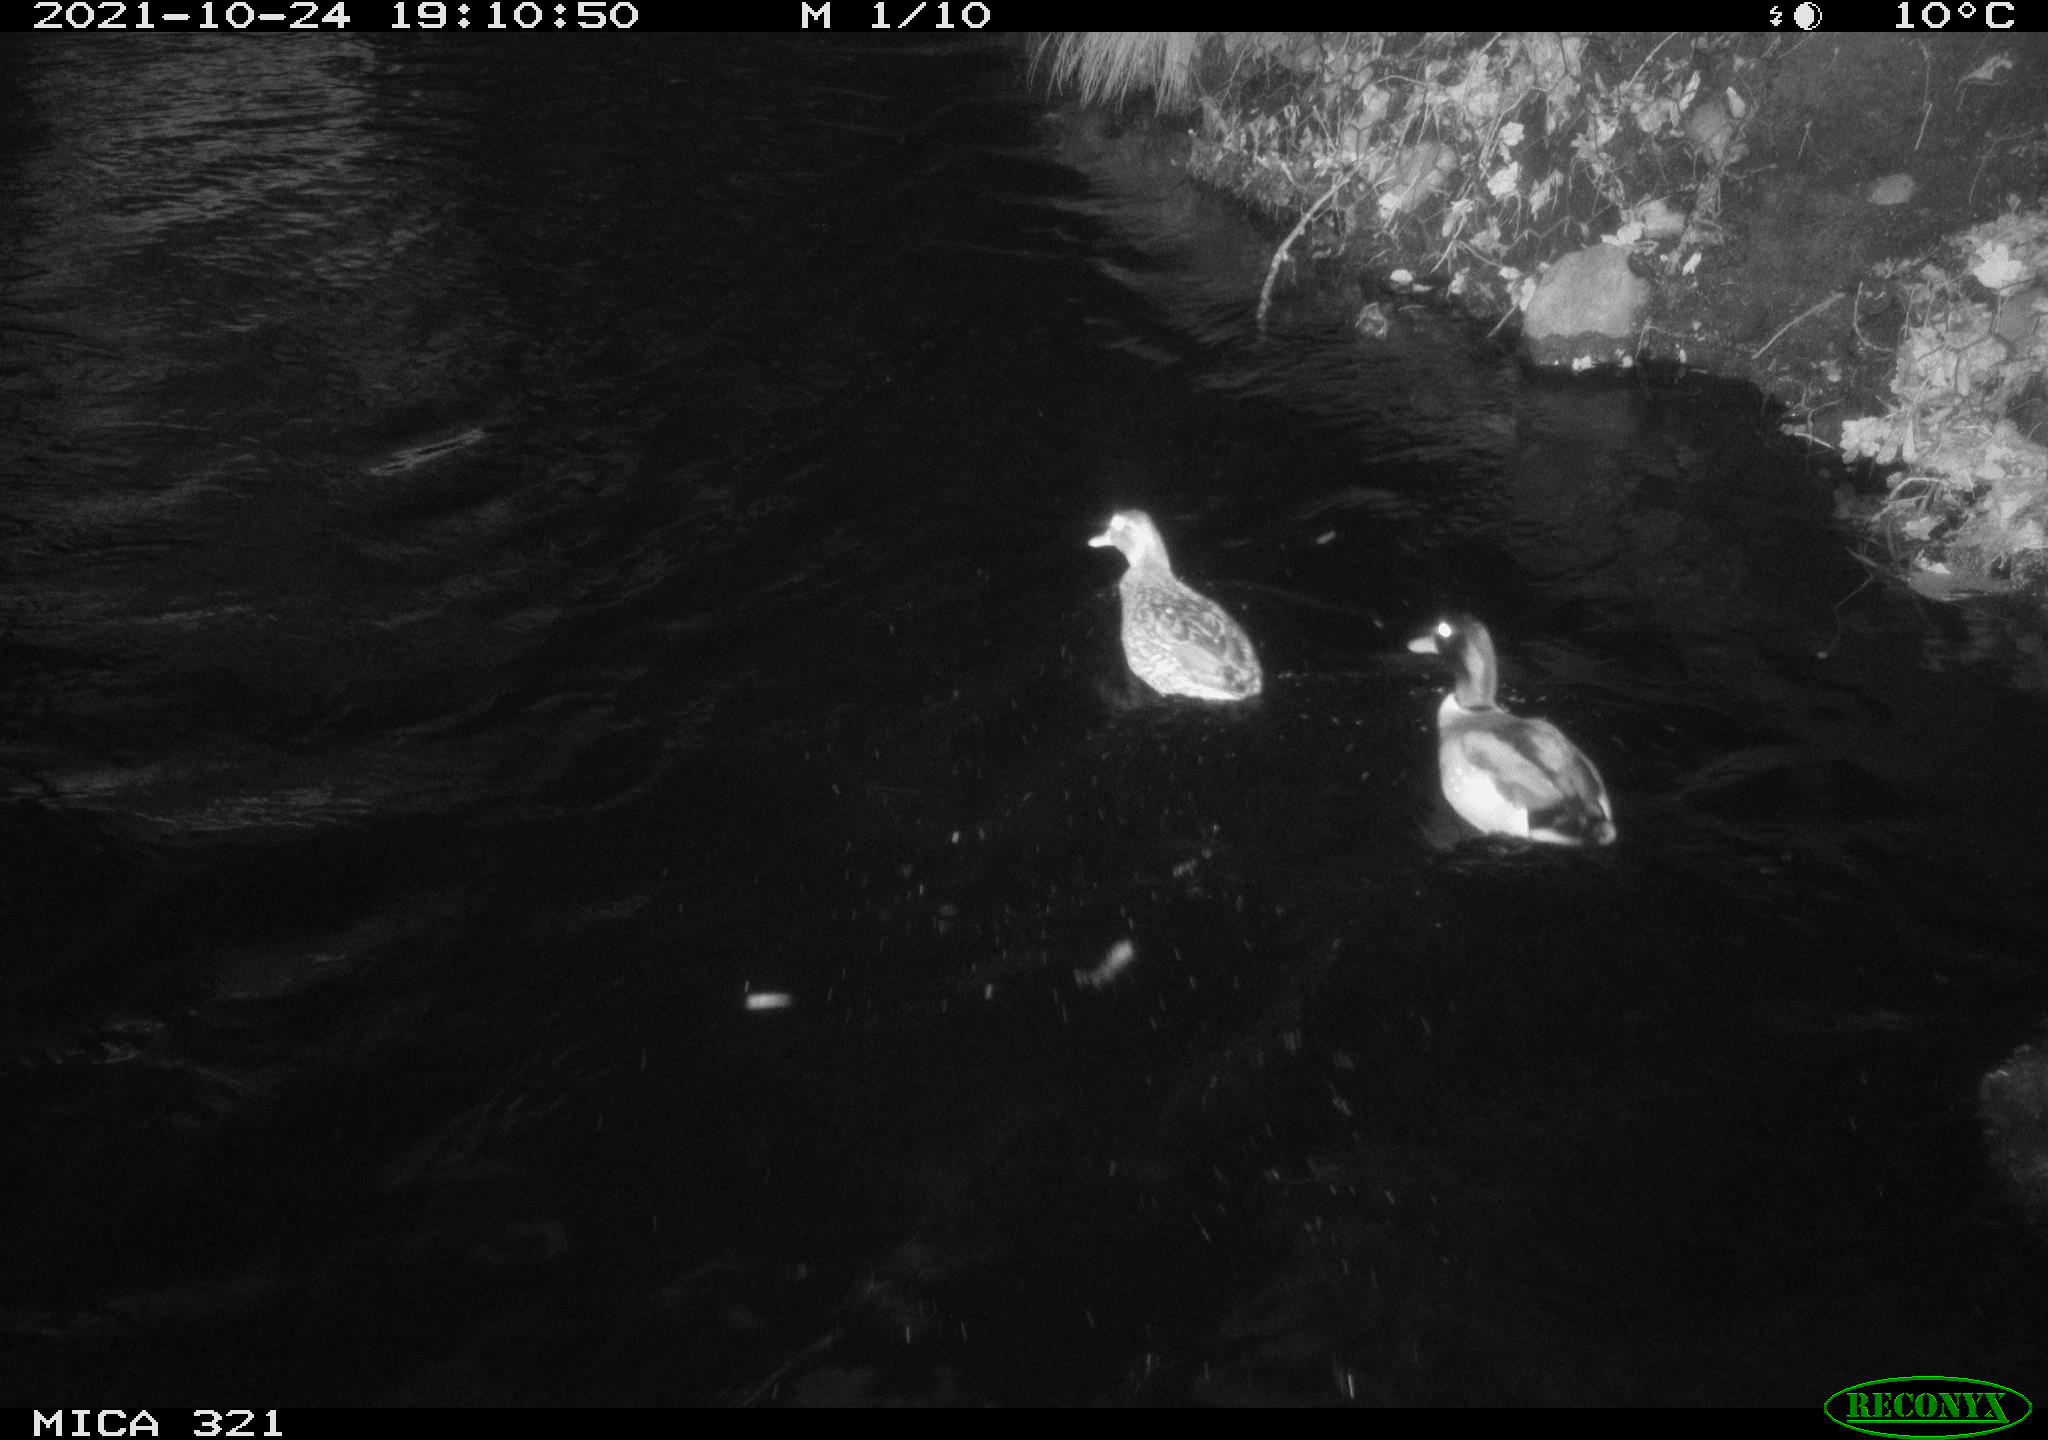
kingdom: Animalia
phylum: Chordata
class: Aves
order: Anseriformes
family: Anatidae
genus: Anas
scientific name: Anas platyrhynchos
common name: Mallard
